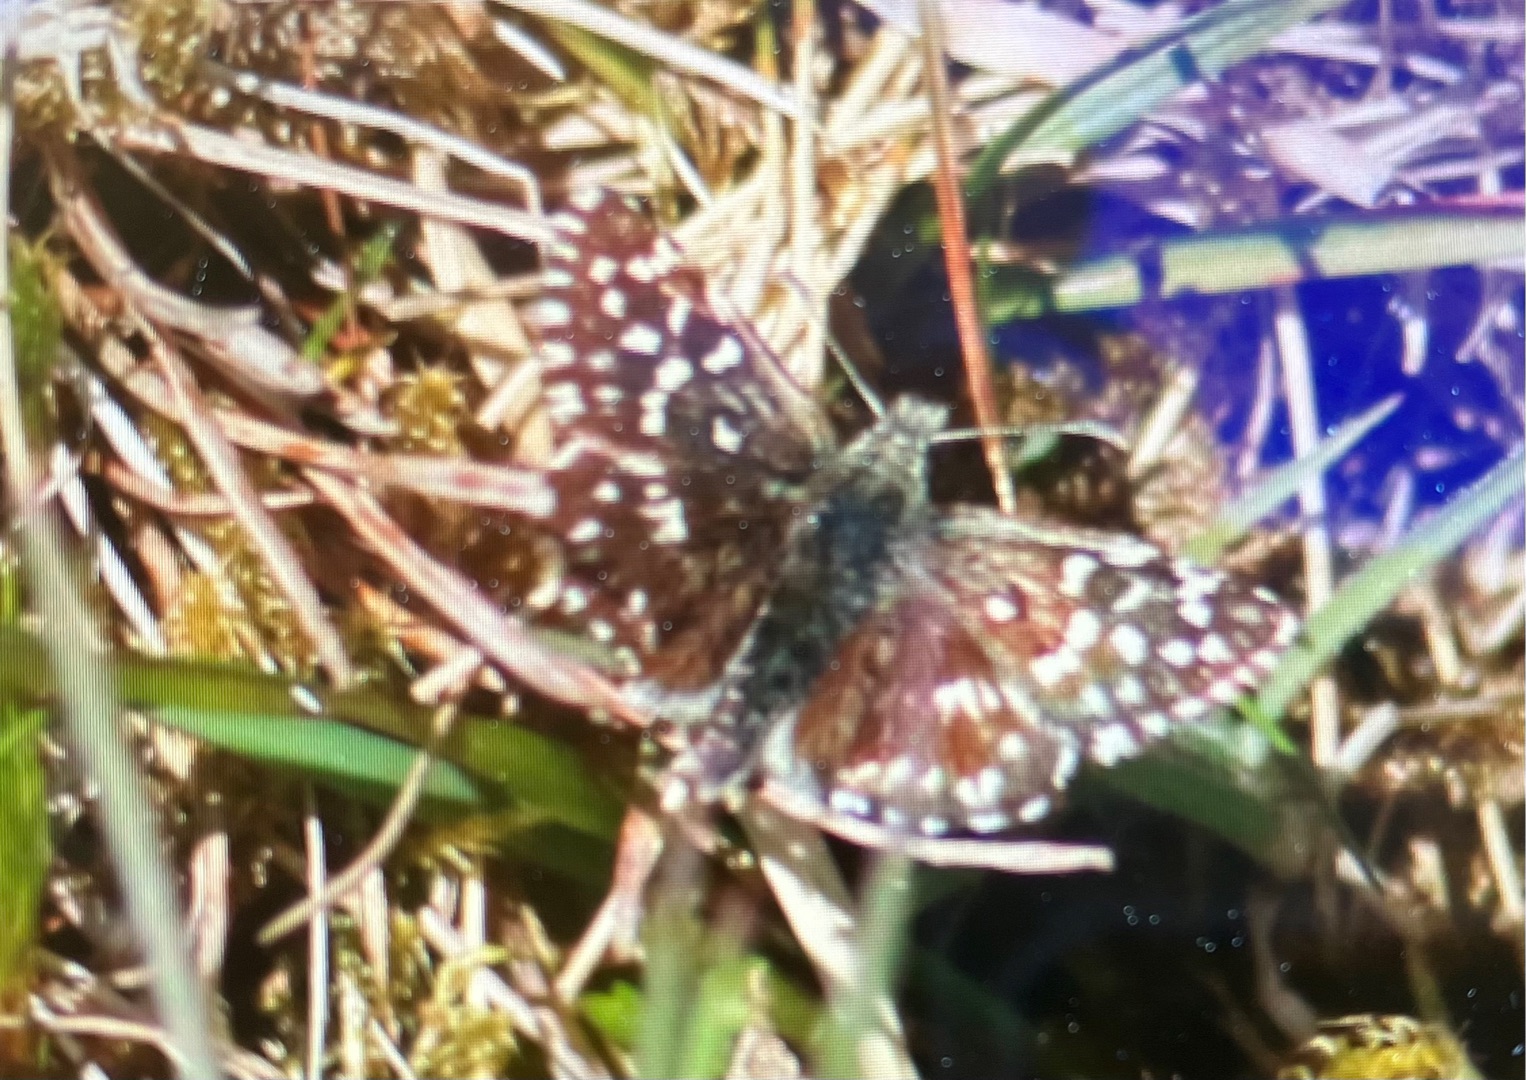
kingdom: Animalia
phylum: Arthropoda
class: Insecta
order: Lepidoptera
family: Hesperiidae
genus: Pyrgus
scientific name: Pyrgus malvae
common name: Spættet bredpande
